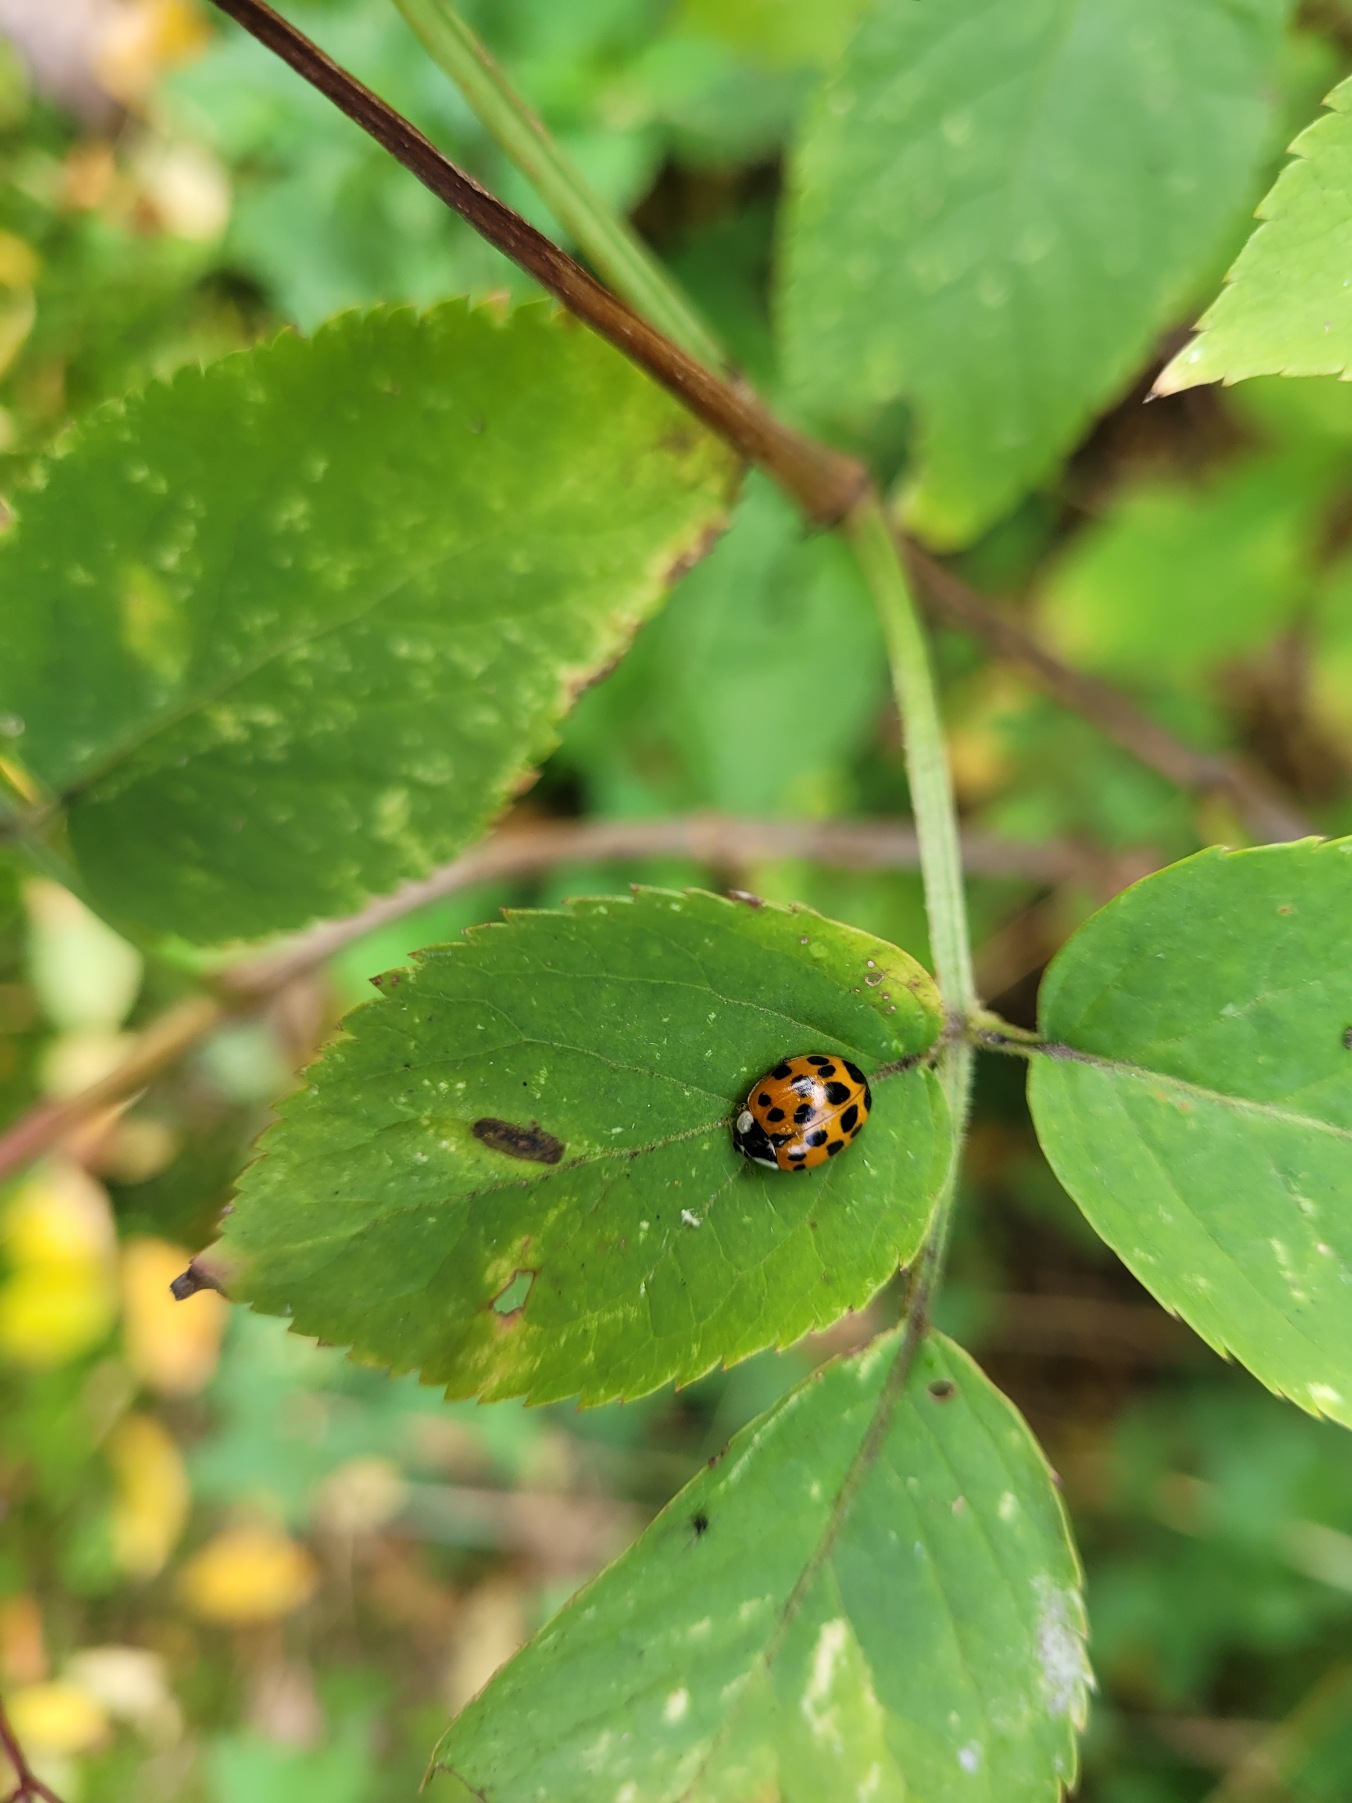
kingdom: Animalia
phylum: Arthropoda
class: Insecta
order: Coleoptera
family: Coccinellidae
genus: Harmonia
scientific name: Harmonia axyridis
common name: Harlekinmariehøne
